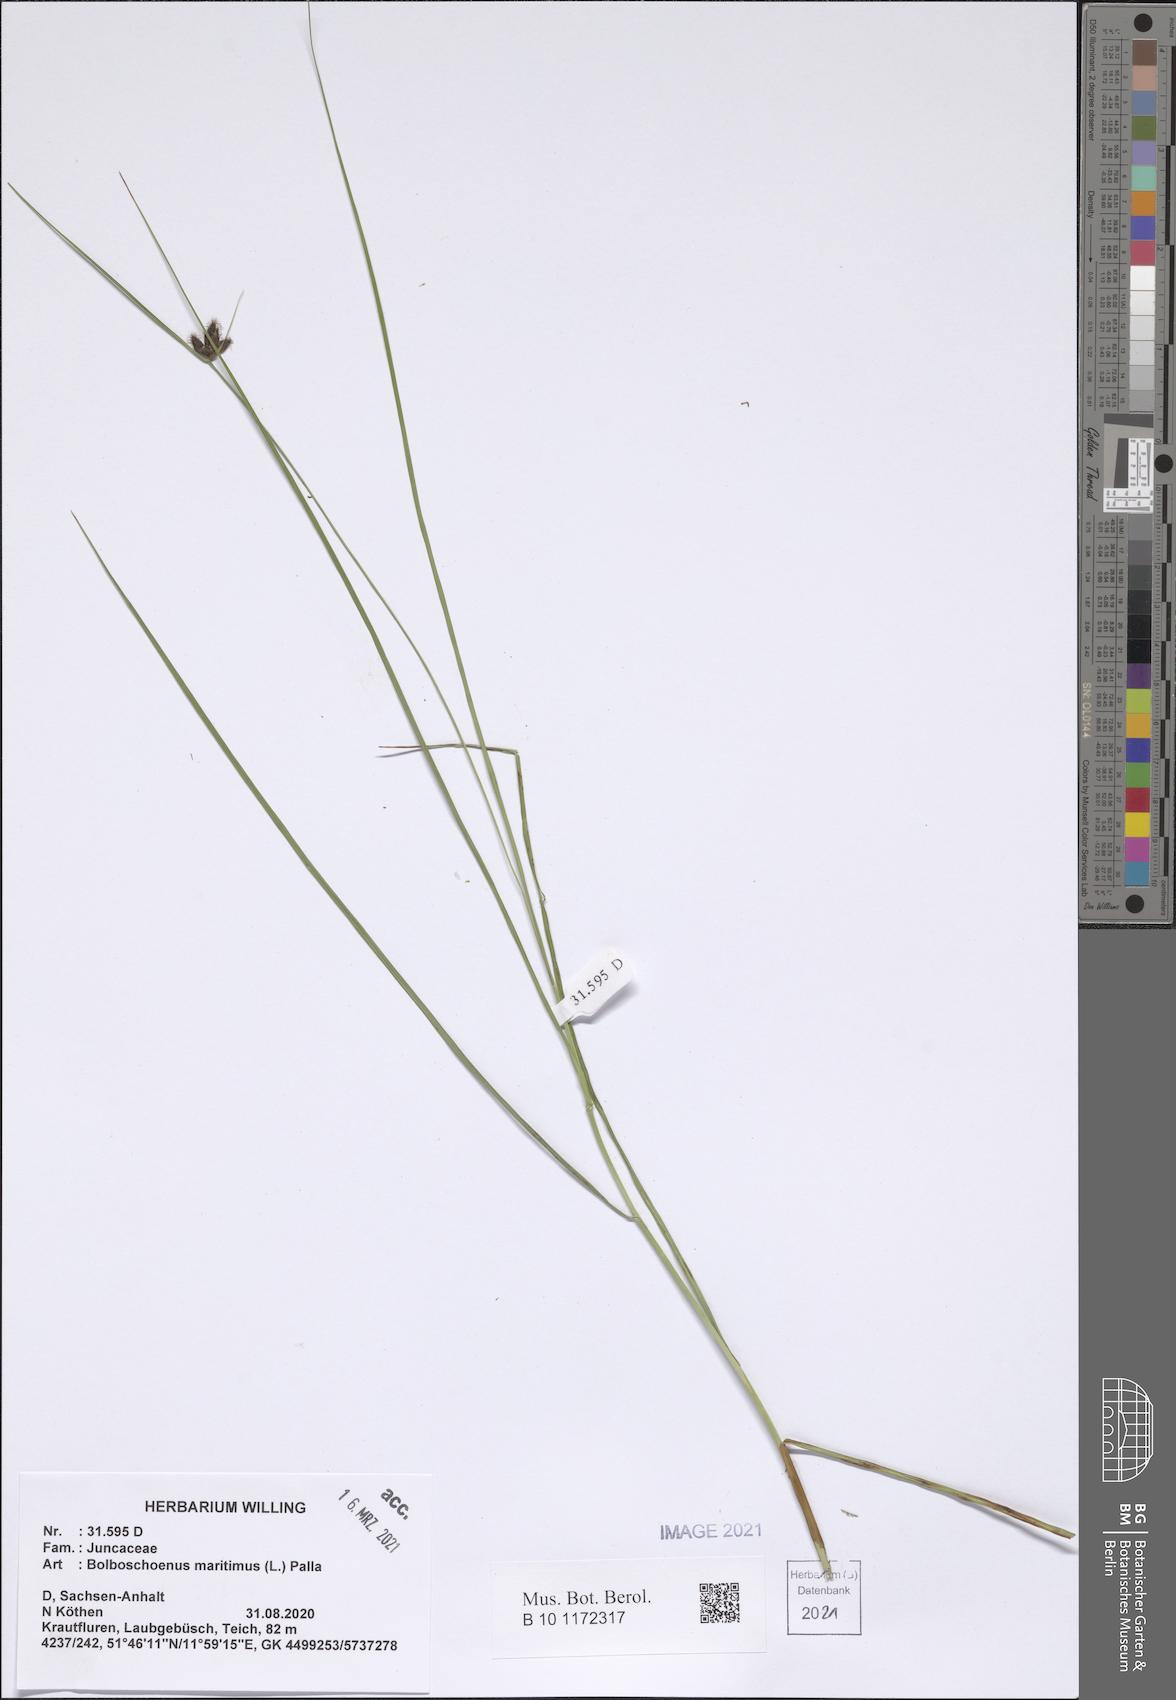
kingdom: Plantae
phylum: Tracheophyta
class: Liliopsida
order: Poales
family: Cyperaceae
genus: Bolboschoenus
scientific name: Bolboschoenus maritimus
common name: Sea club-rush
